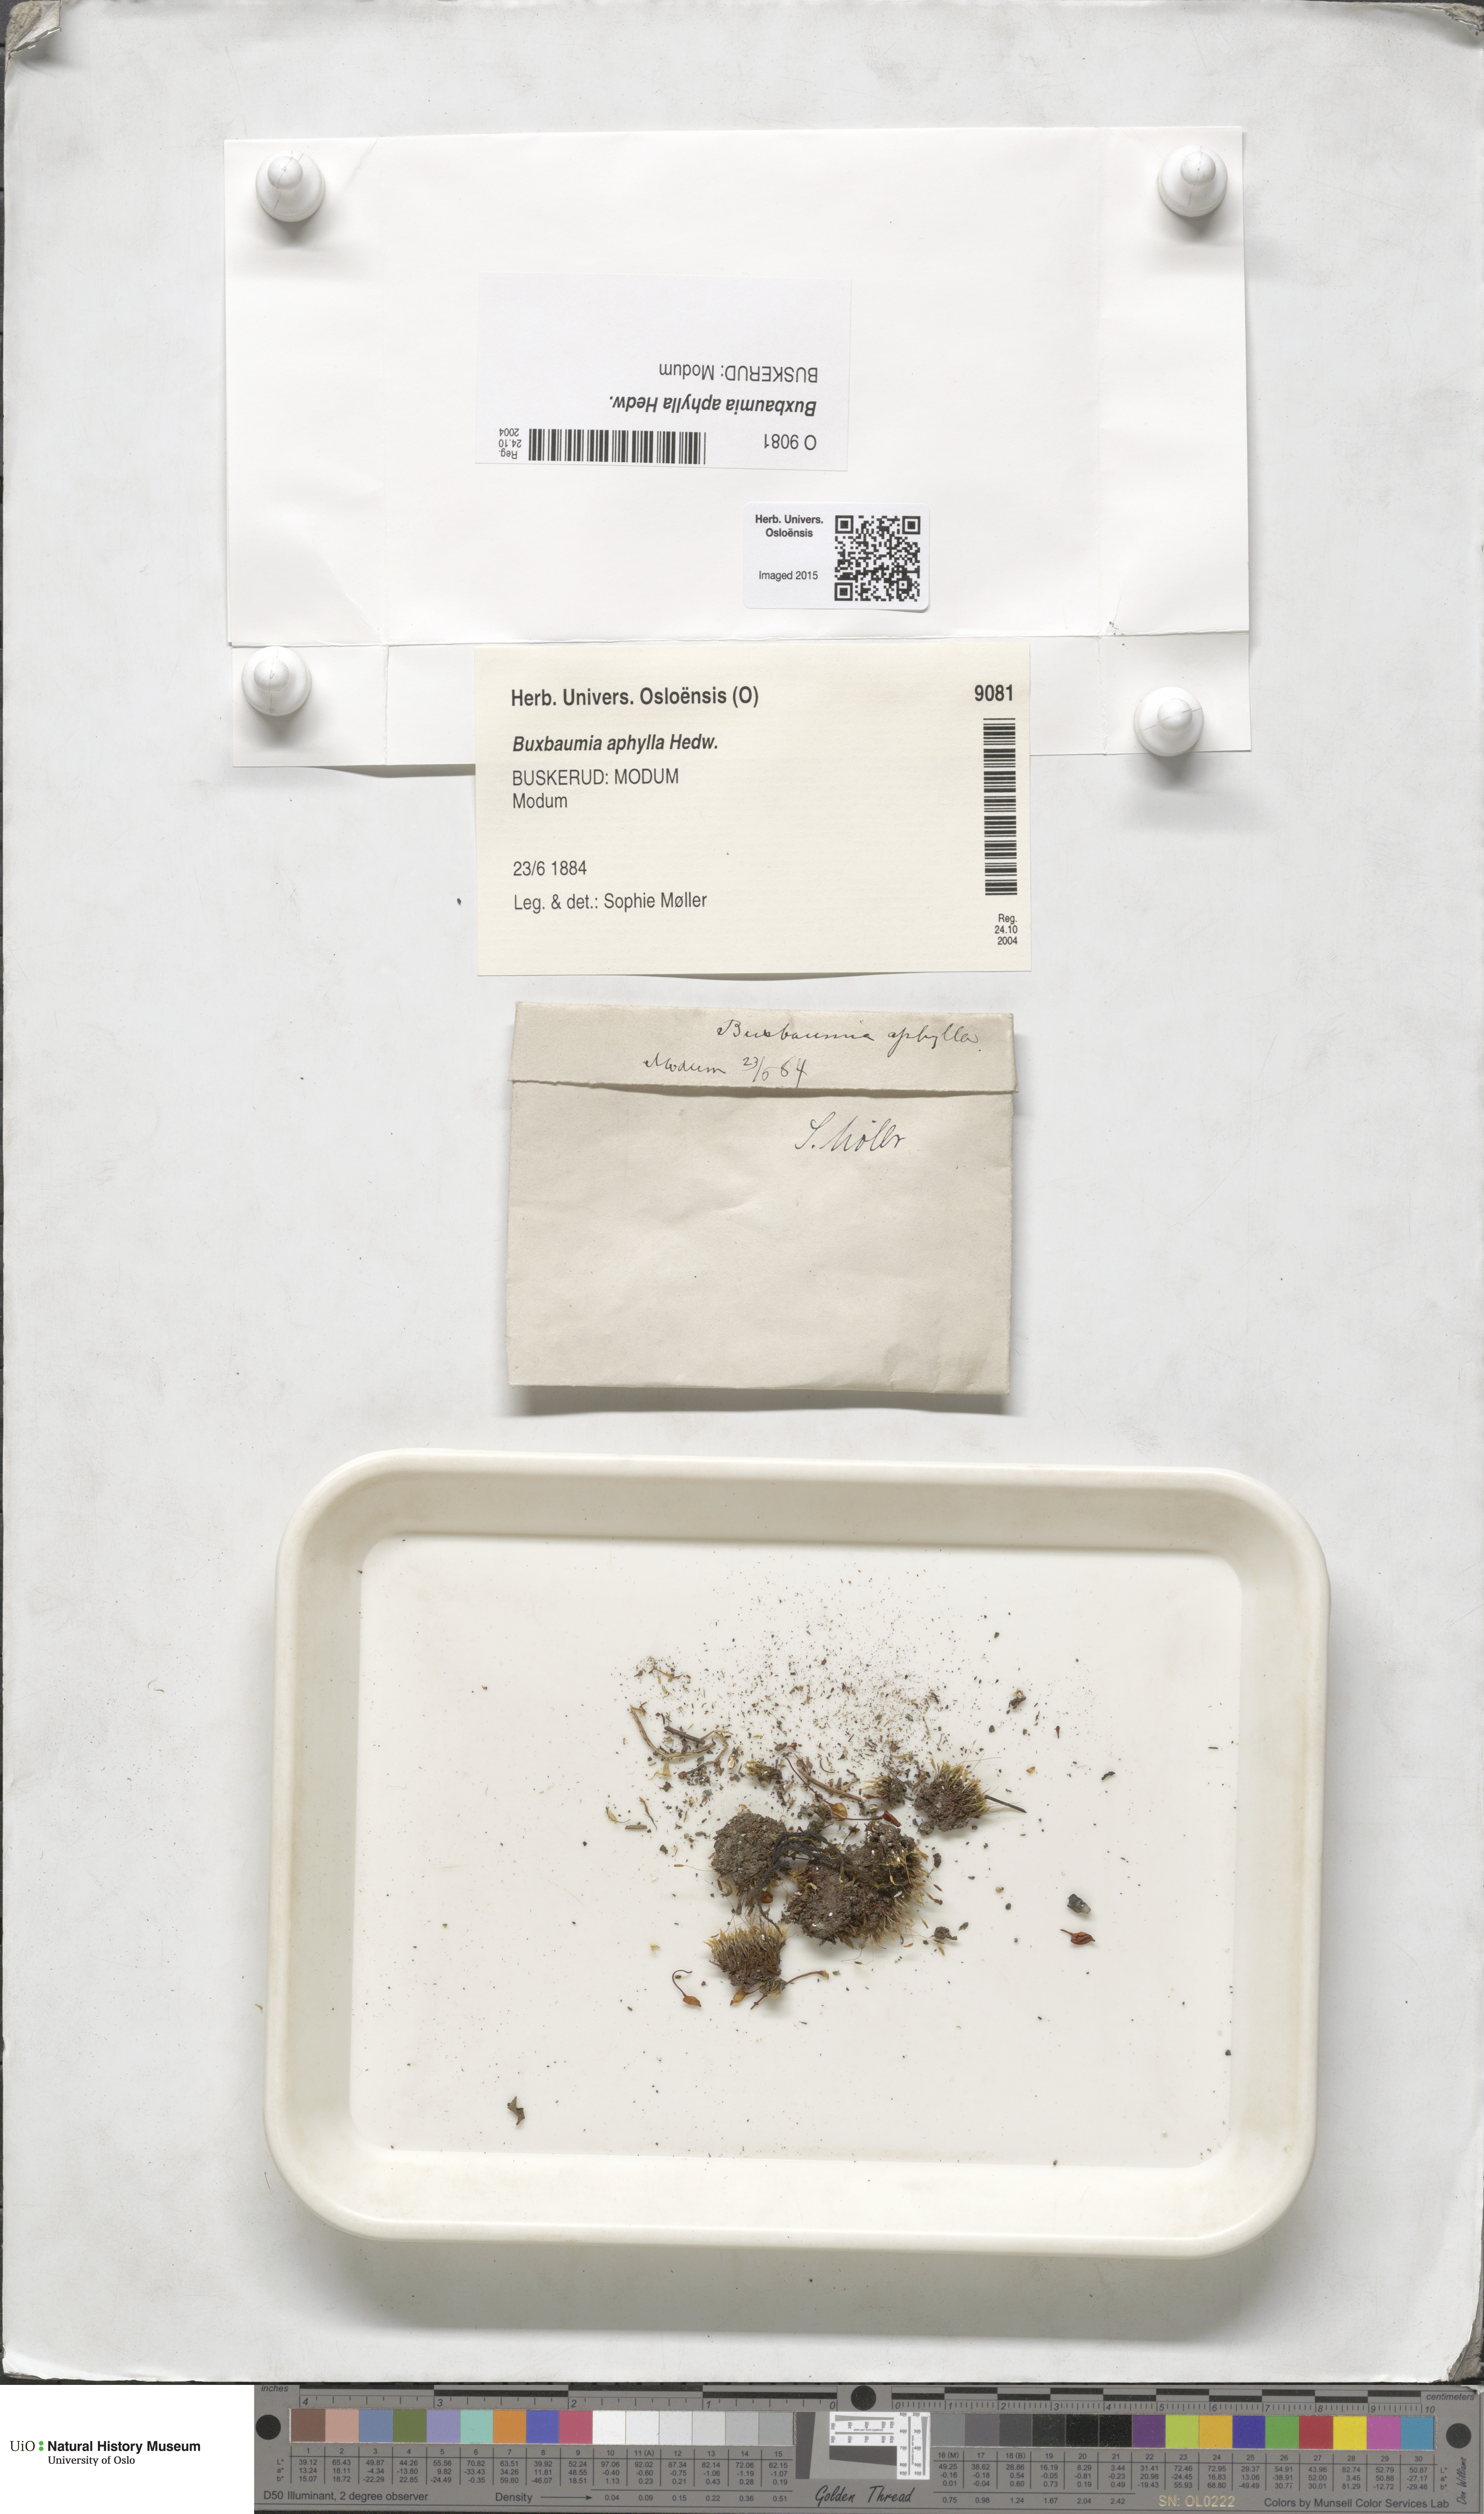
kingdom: Plantae
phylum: Bryophyta
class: Bryopsida
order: Buxbaumiales
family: Buxbaumiaceae
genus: Buxbaumia
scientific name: Buxbaumia aphylla
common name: Brown shield-moss
